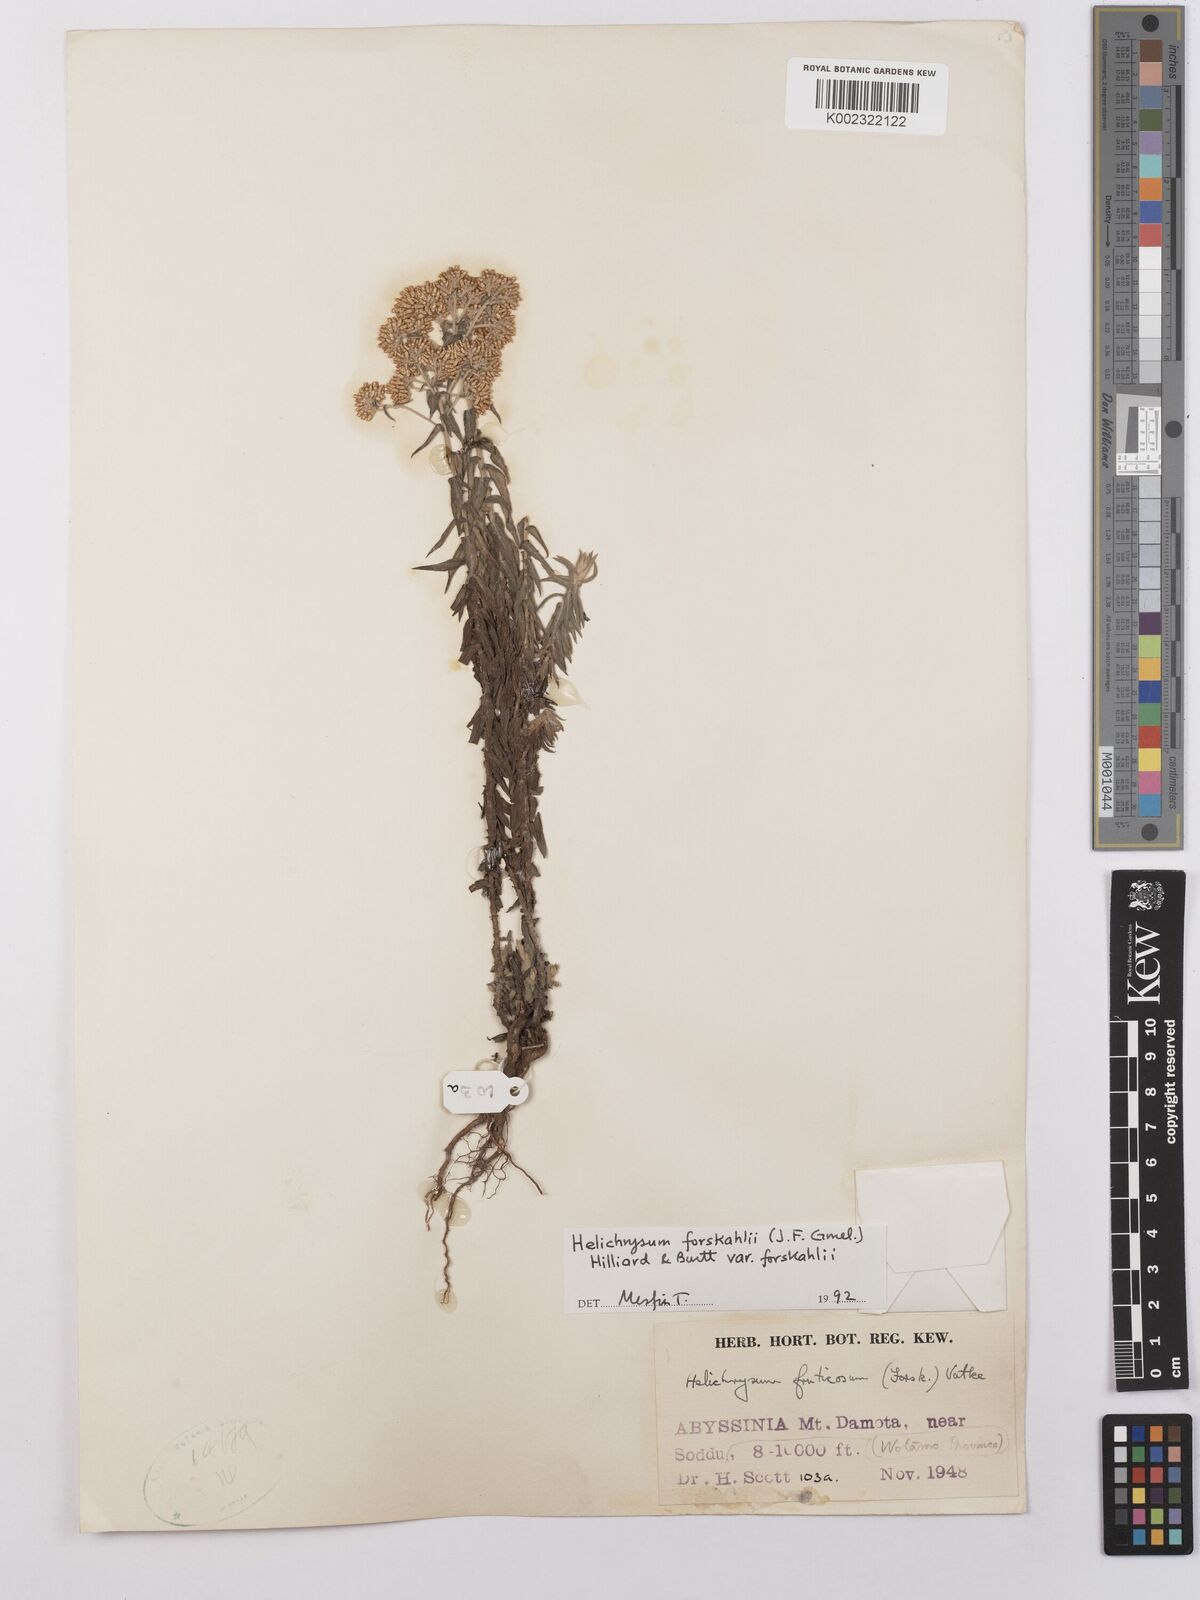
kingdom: Plantae
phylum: Tracheophyta
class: Magnoliopsida
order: Asterales
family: Asteraceae
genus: Helichrysum
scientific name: Helichrysum forskahlii
